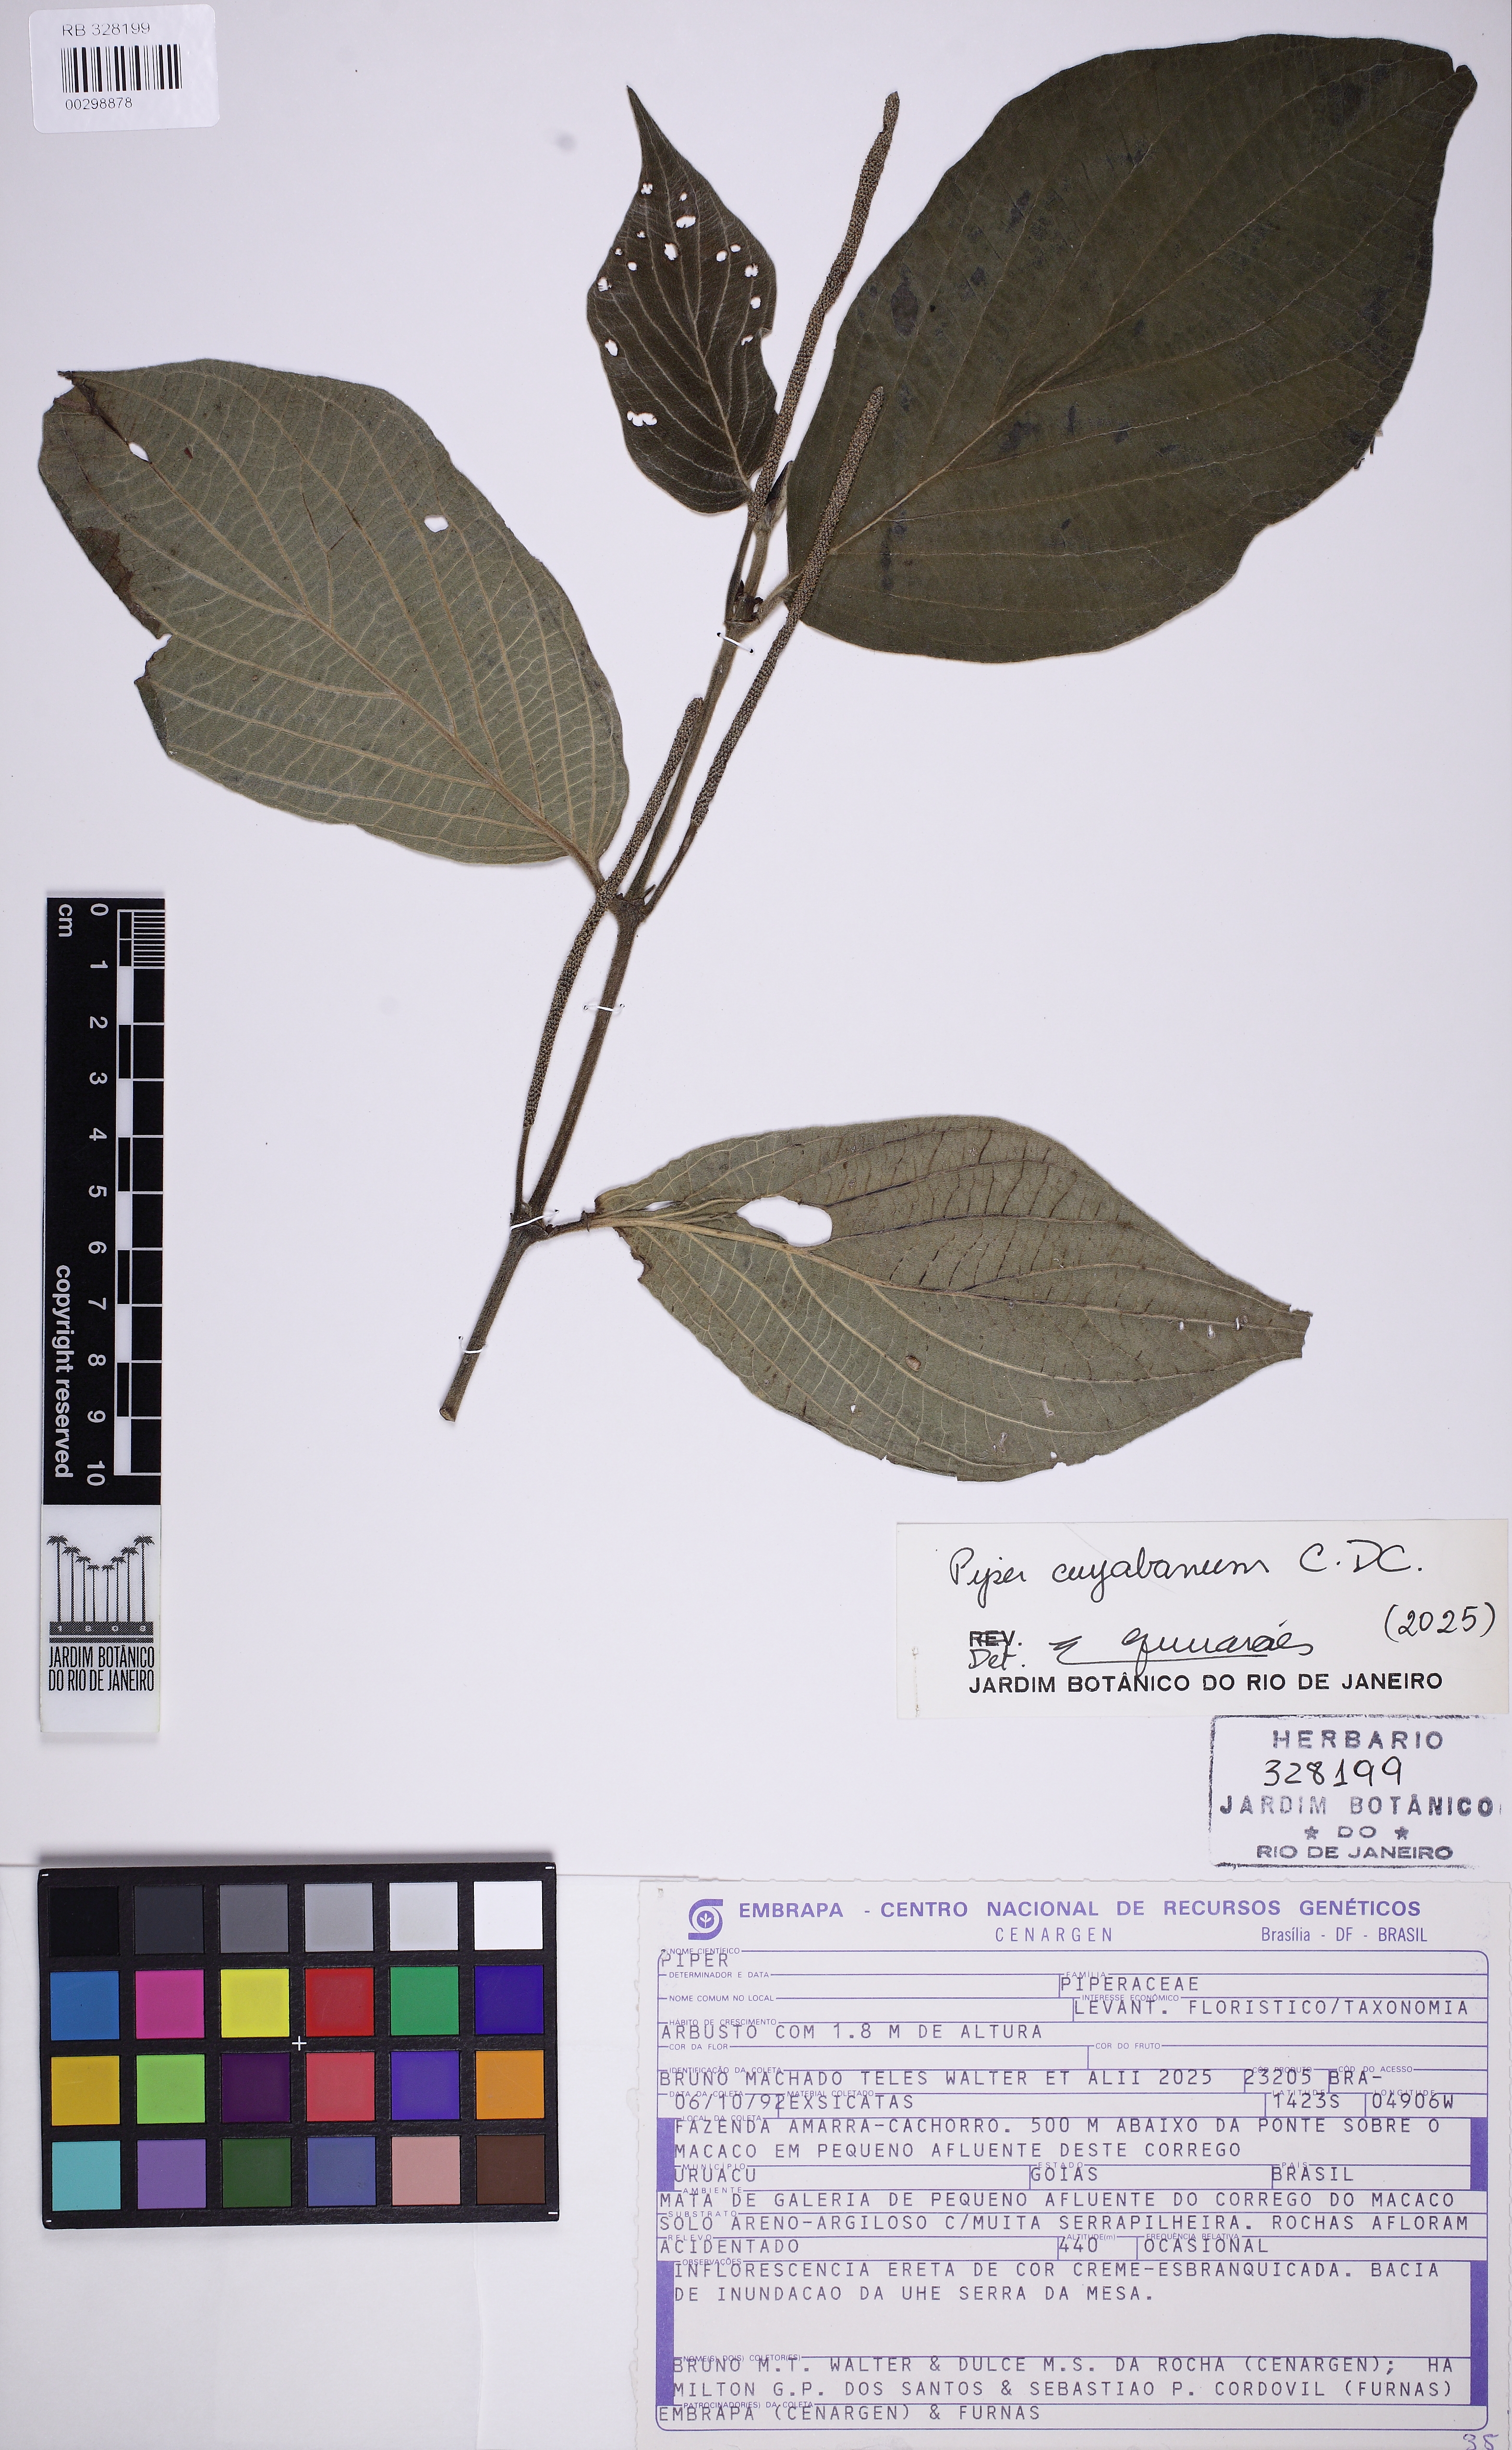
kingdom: Plantae
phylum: Tracheophyta
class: Magnoliopsida
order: Piperales
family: Piperaceae
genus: Piper
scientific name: Piper cuyabanum
